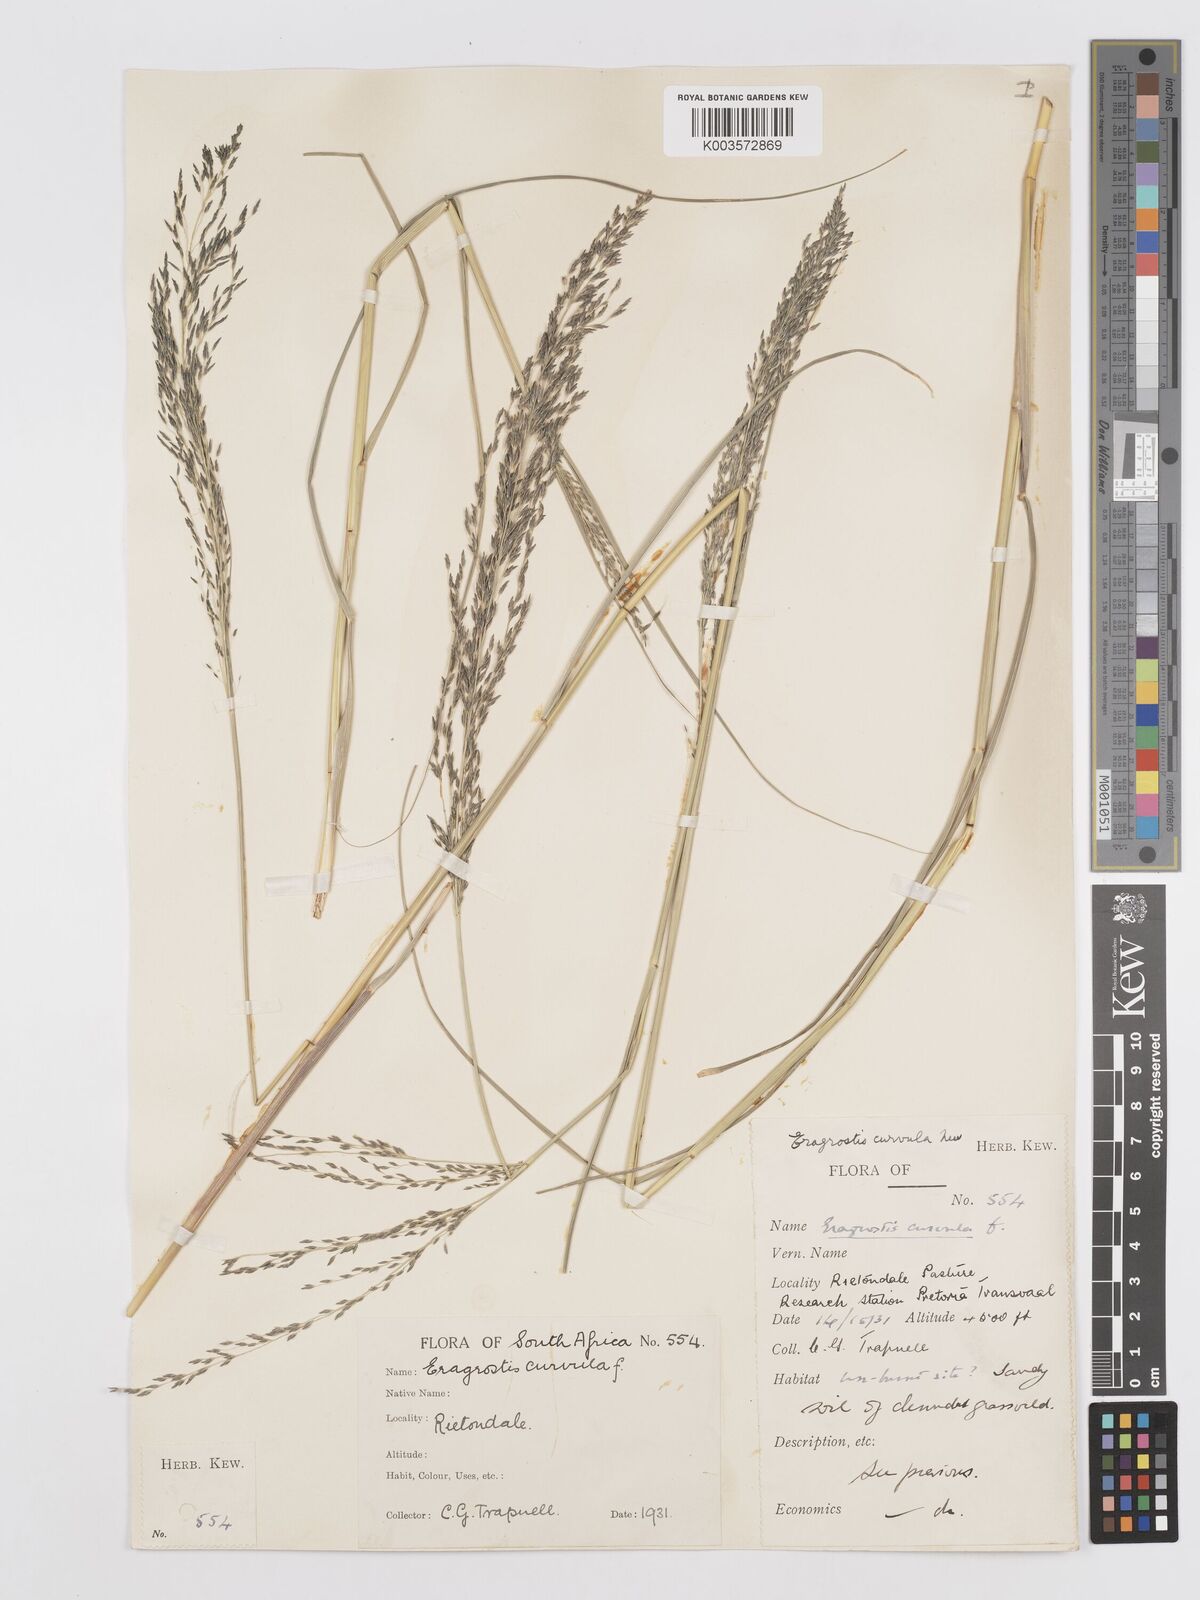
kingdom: Plantae
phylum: Tracheophyta
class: Liliopsida
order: Poales
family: Poaceae
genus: Eragrostis
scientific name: Eragrostis curvula
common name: African love-grass
